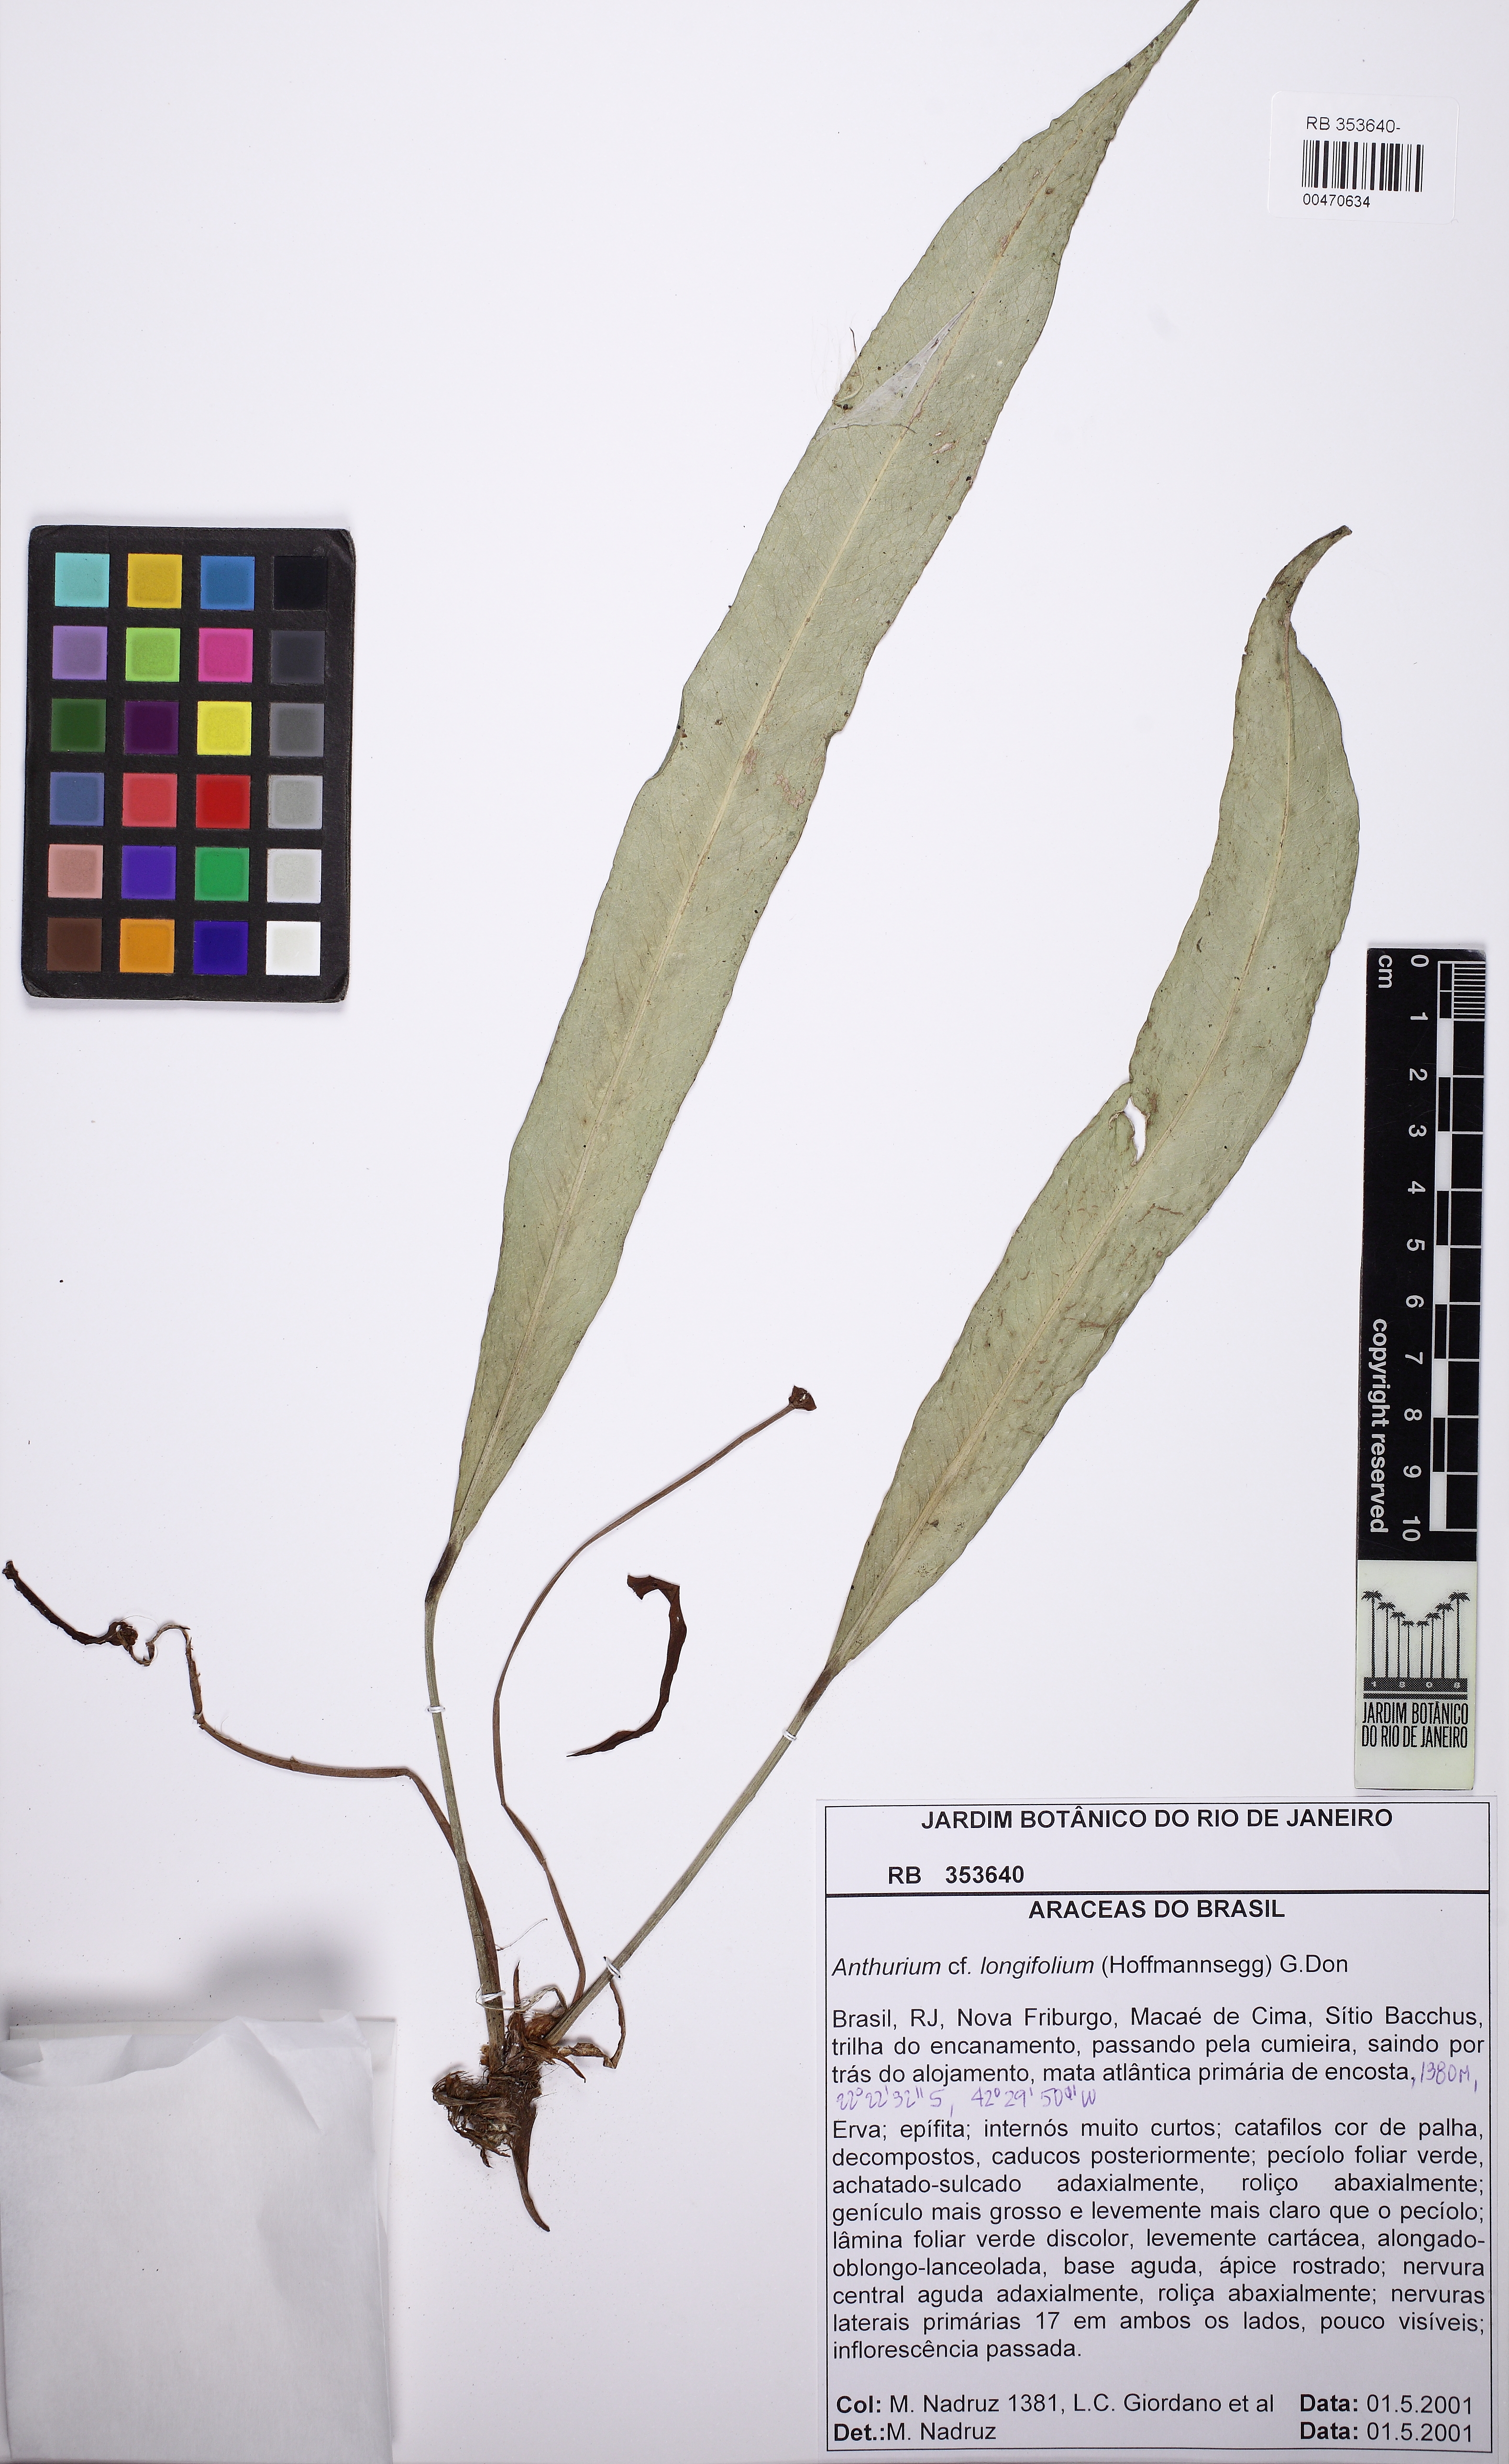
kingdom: Plantae
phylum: Tracheophyta
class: Liliopsida
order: Alismatales
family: Araceae
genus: Anthurium
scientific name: Anthurium longifolium
